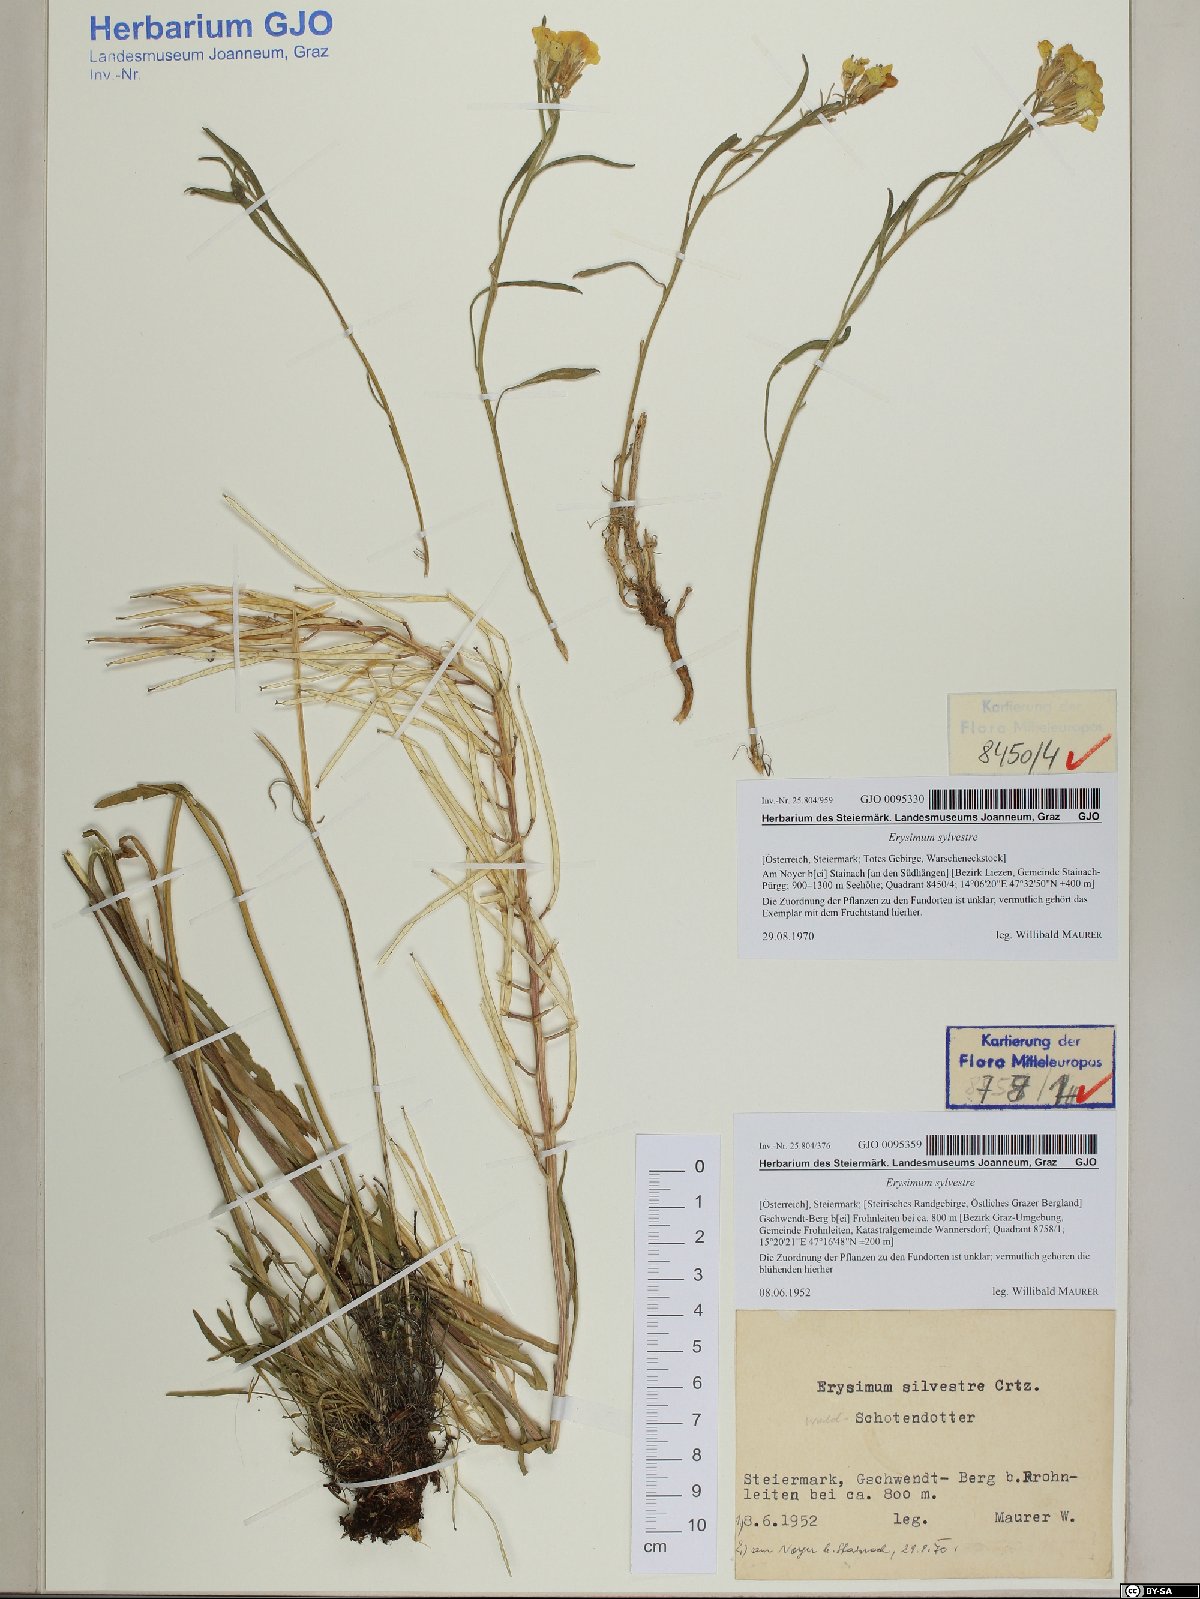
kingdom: Plantae
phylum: Tracheophyta
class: Magnoliopsida
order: Brassicales
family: Brassicaceae
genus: Erysimum
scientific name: Erysimum sylvestre
